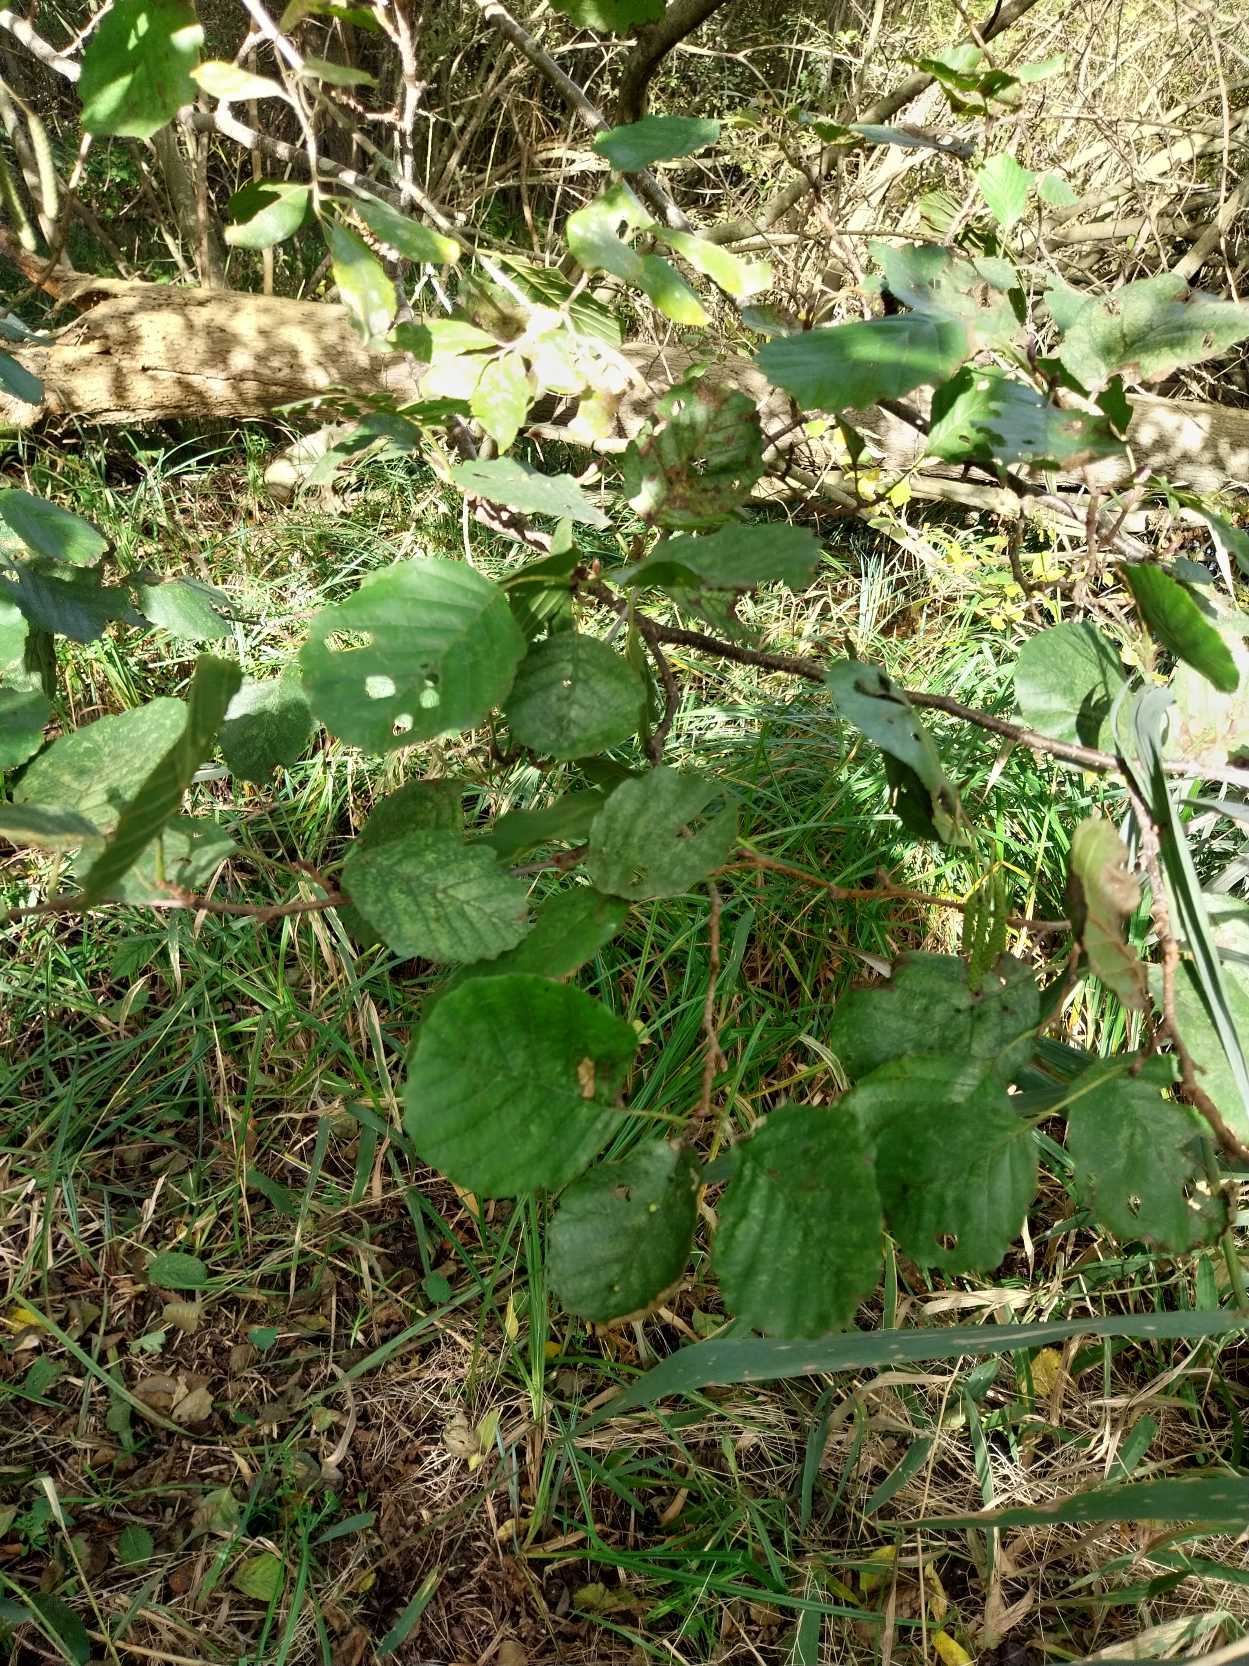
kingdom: Plantae
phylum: Tracheophyta
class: Magnoliopsida
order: Fagales
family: Betulaceae
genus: Alnus
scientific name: Alnus glutinosa
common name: Rød-el
